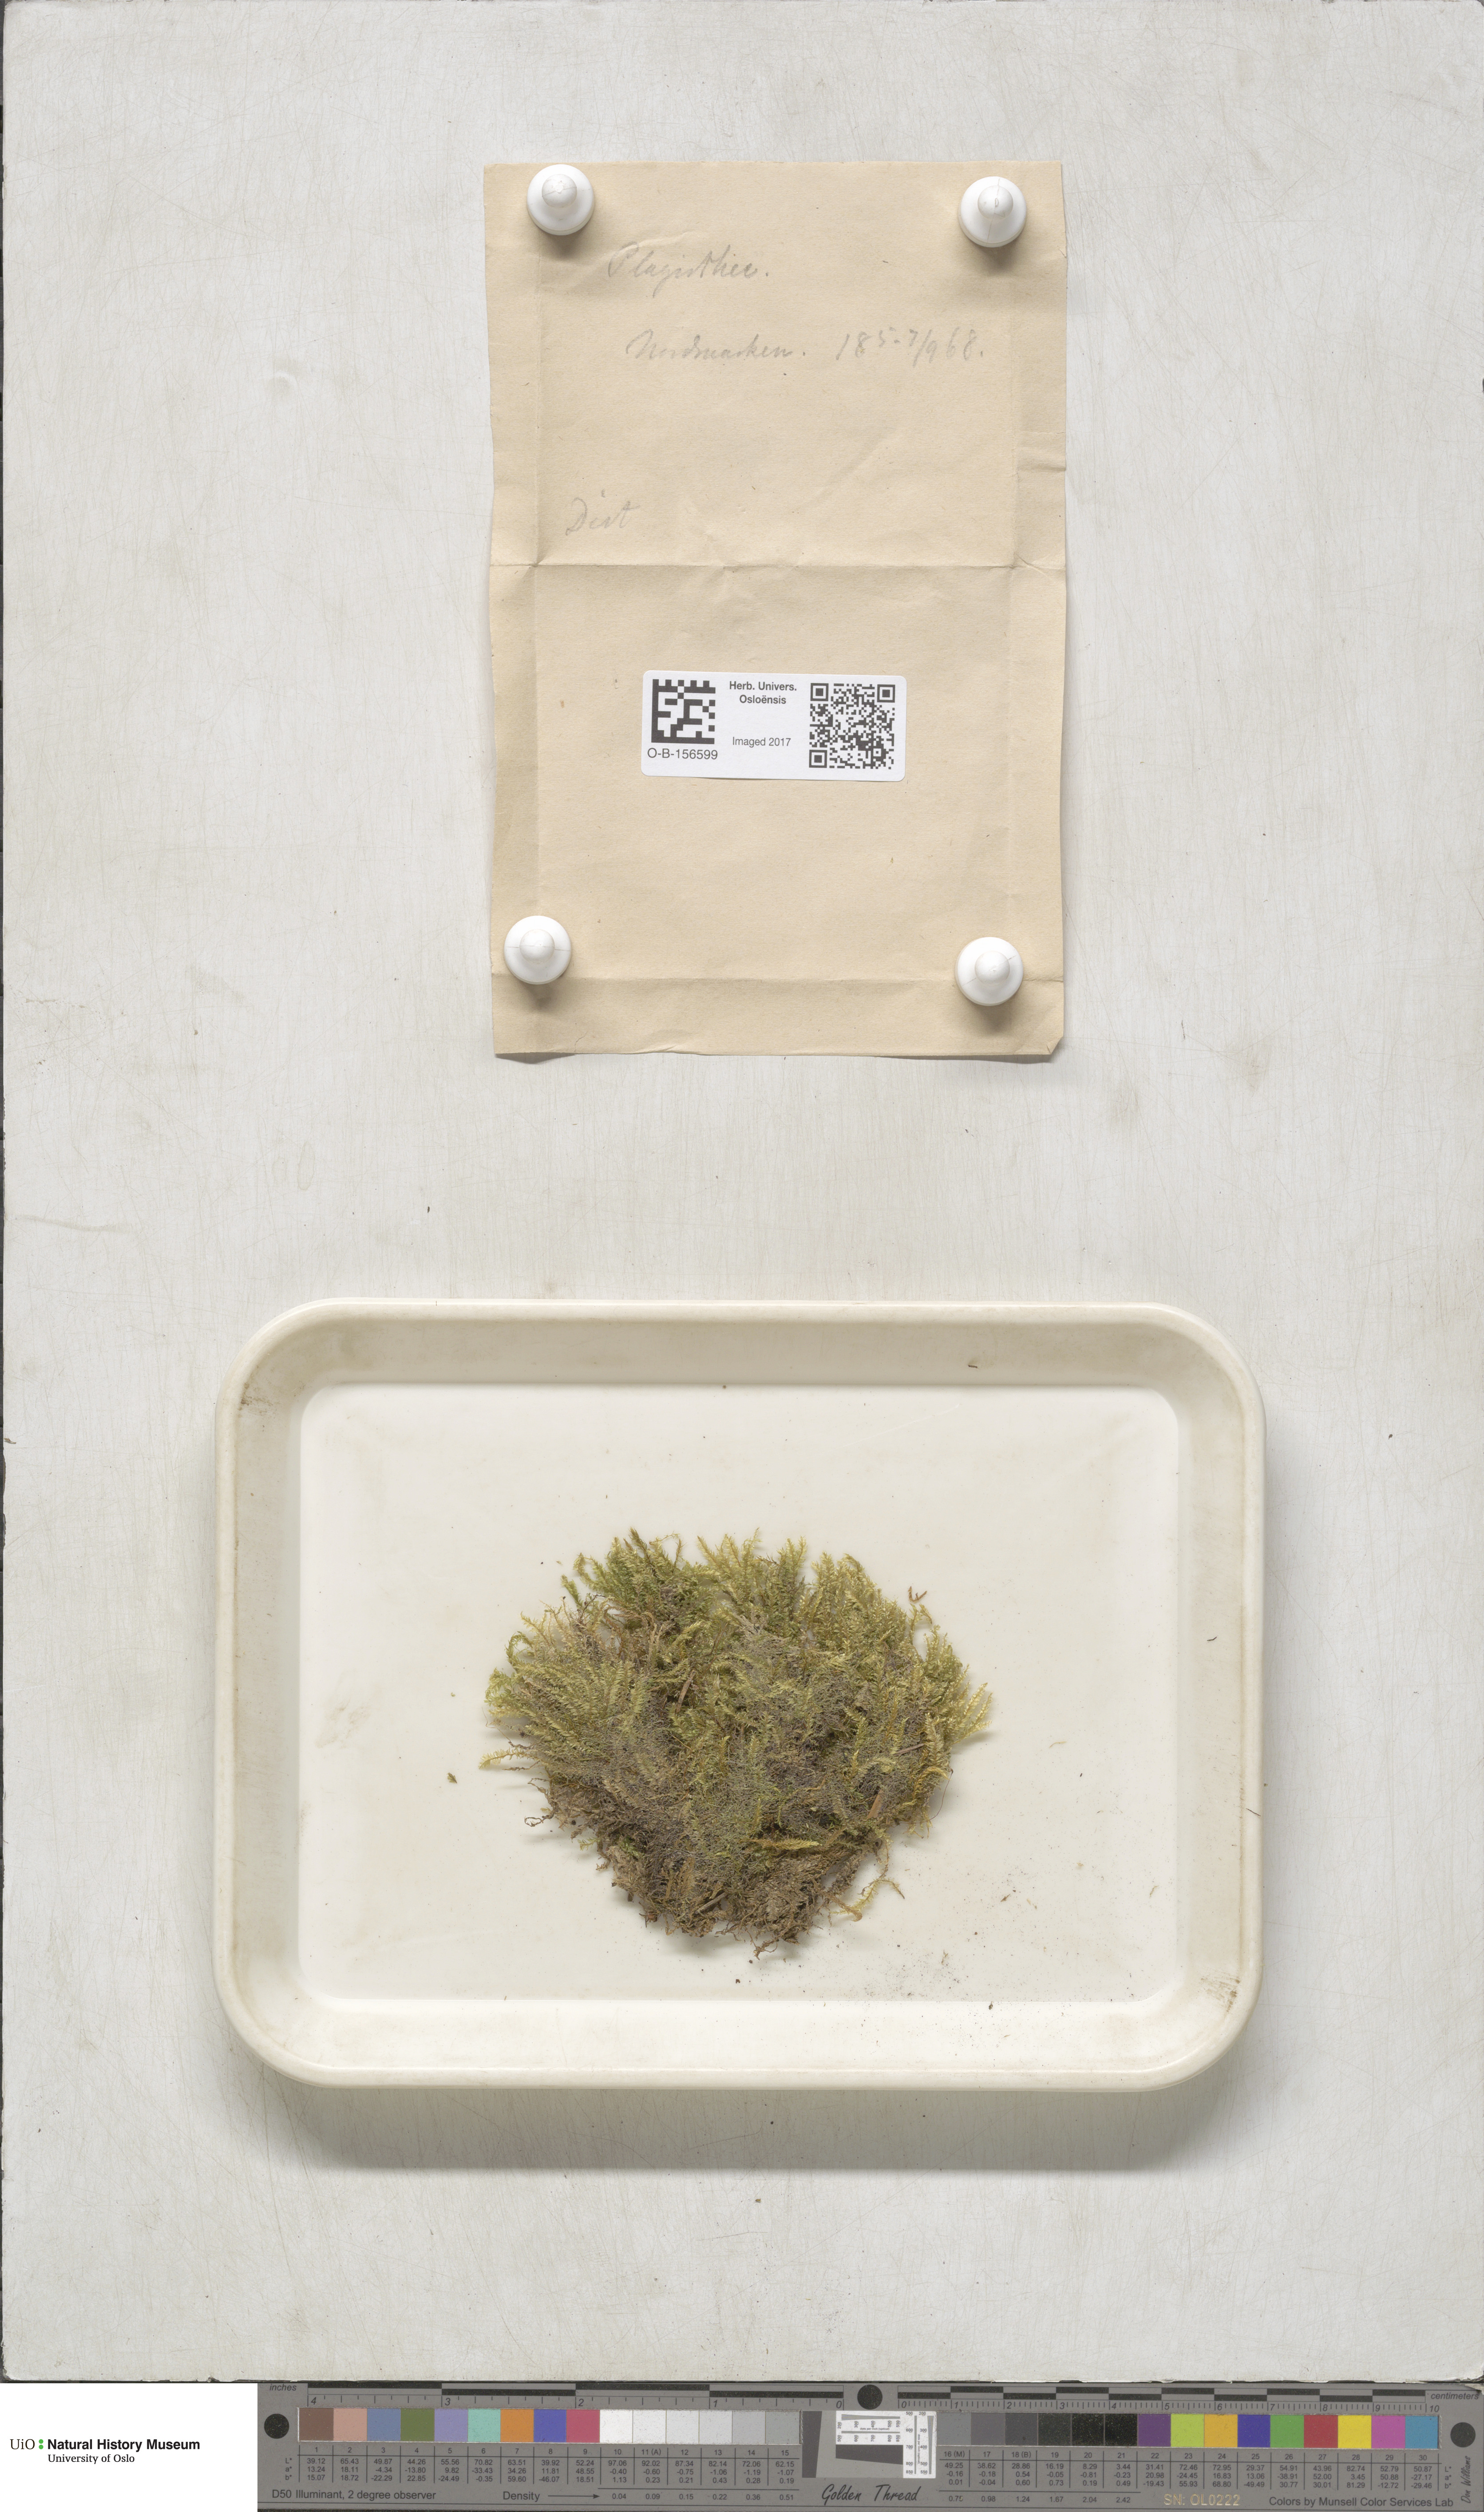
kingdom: Plantae
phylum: Bryophyta
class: Bryopsida
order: Hypnales
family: Plagiotheciaceae
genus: Plagiothecium
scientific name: Plagiothecium
